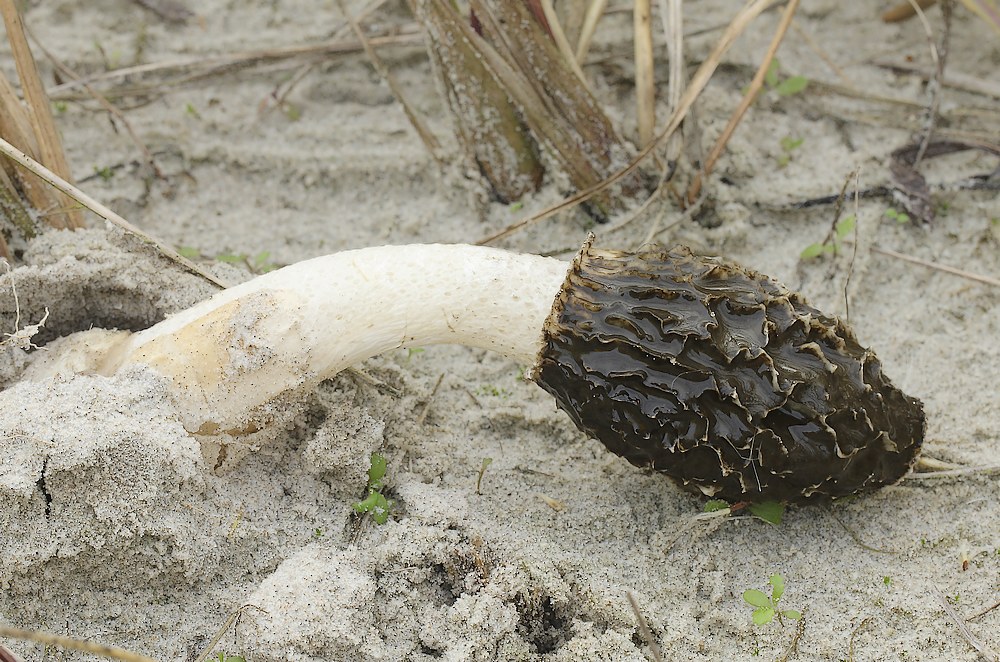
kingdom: Fungi
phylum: Basidiomycota
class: Agaricomycetes
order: Phallales
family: Phallaceae
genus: Phallus
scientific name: Phallus impudicus
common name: almindelig stinksvamp
